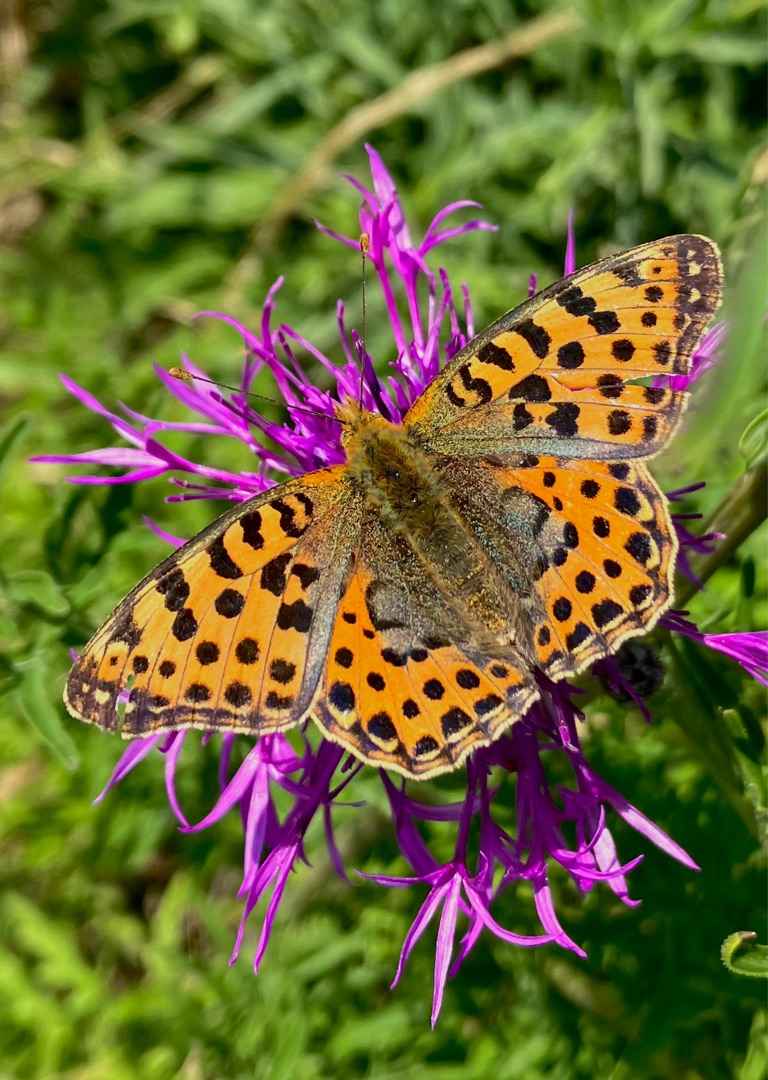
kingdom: Animalia
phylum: Arthropoda
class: Insecta
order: Lepidoptera
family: Nymphalidae
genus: Issoria
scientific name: Issoria lathonia
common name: Storplettet perlemorsommerfugl
